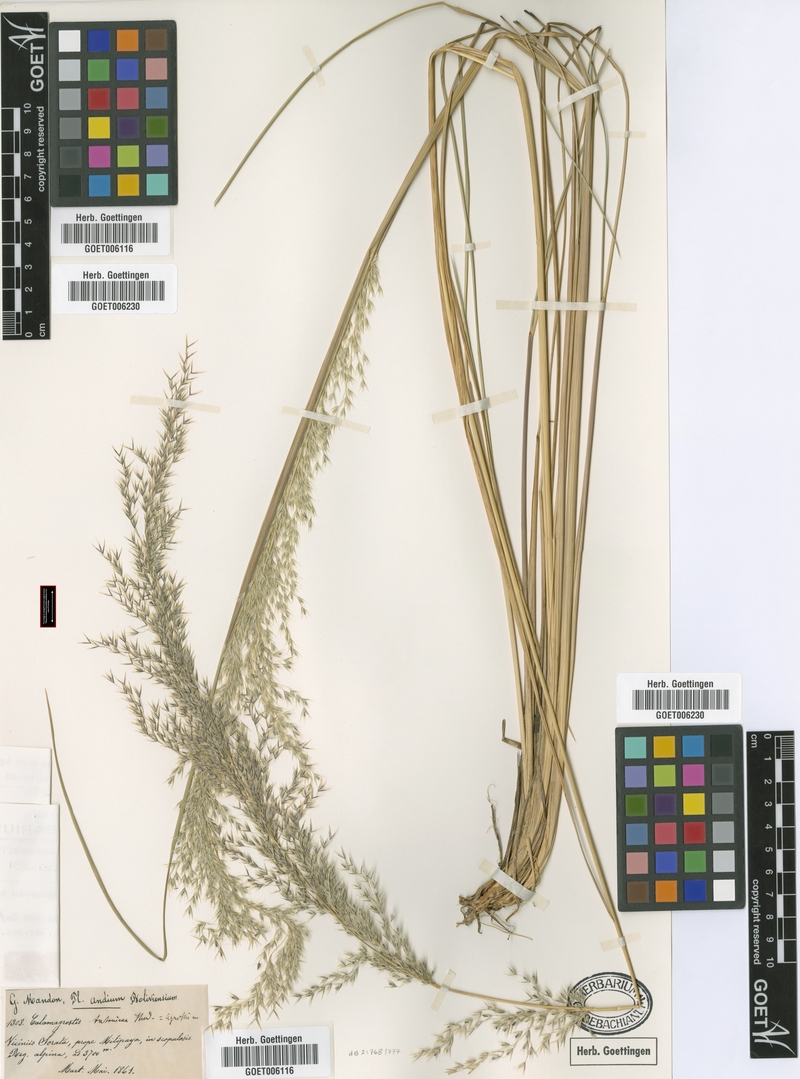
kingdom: Plantae
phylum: Tracheophyta
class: Liliopsida
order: Poales
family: Poaceae
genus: Cinnagrostis
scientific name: Cinnagrostis recta
